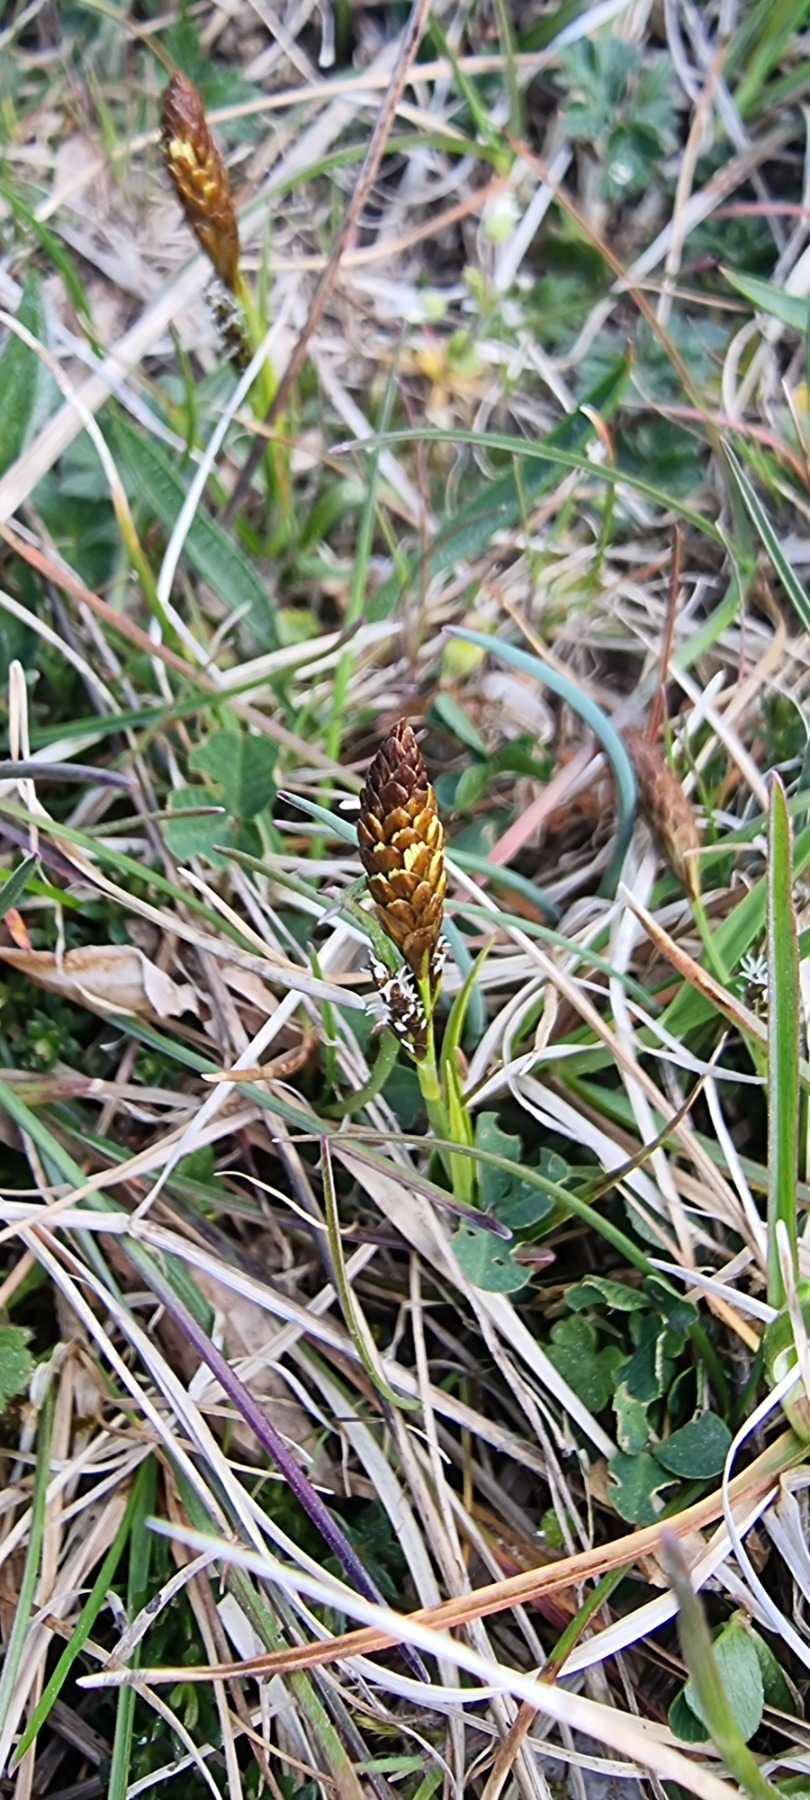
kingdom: Plantae
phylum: Tracheophyta
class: Liliopsida
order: Poales
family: Cyperaceae
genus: Carex
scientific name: Carex caryophyllea
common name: Vår-star
